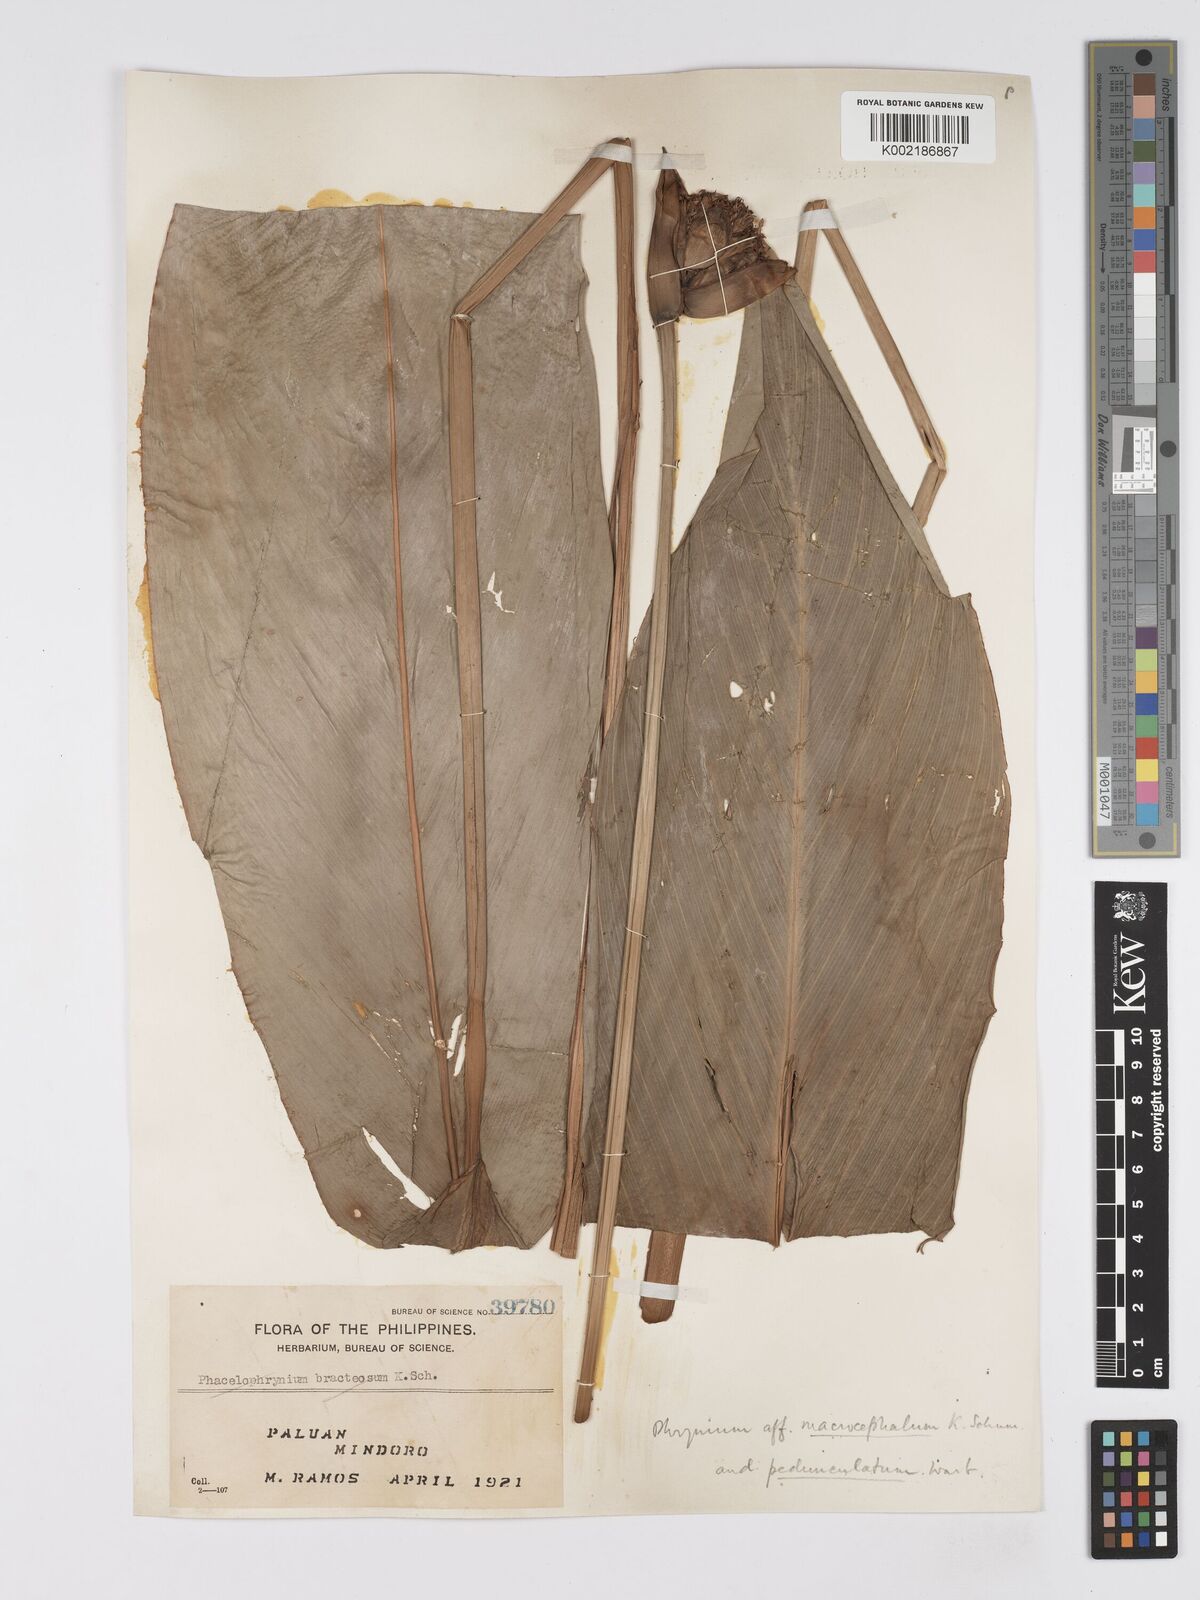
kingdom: Plantae
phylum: Tracheophyta
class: Liliopsida
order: Zingiberales
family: Marantaceae
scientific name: Marantaceae
